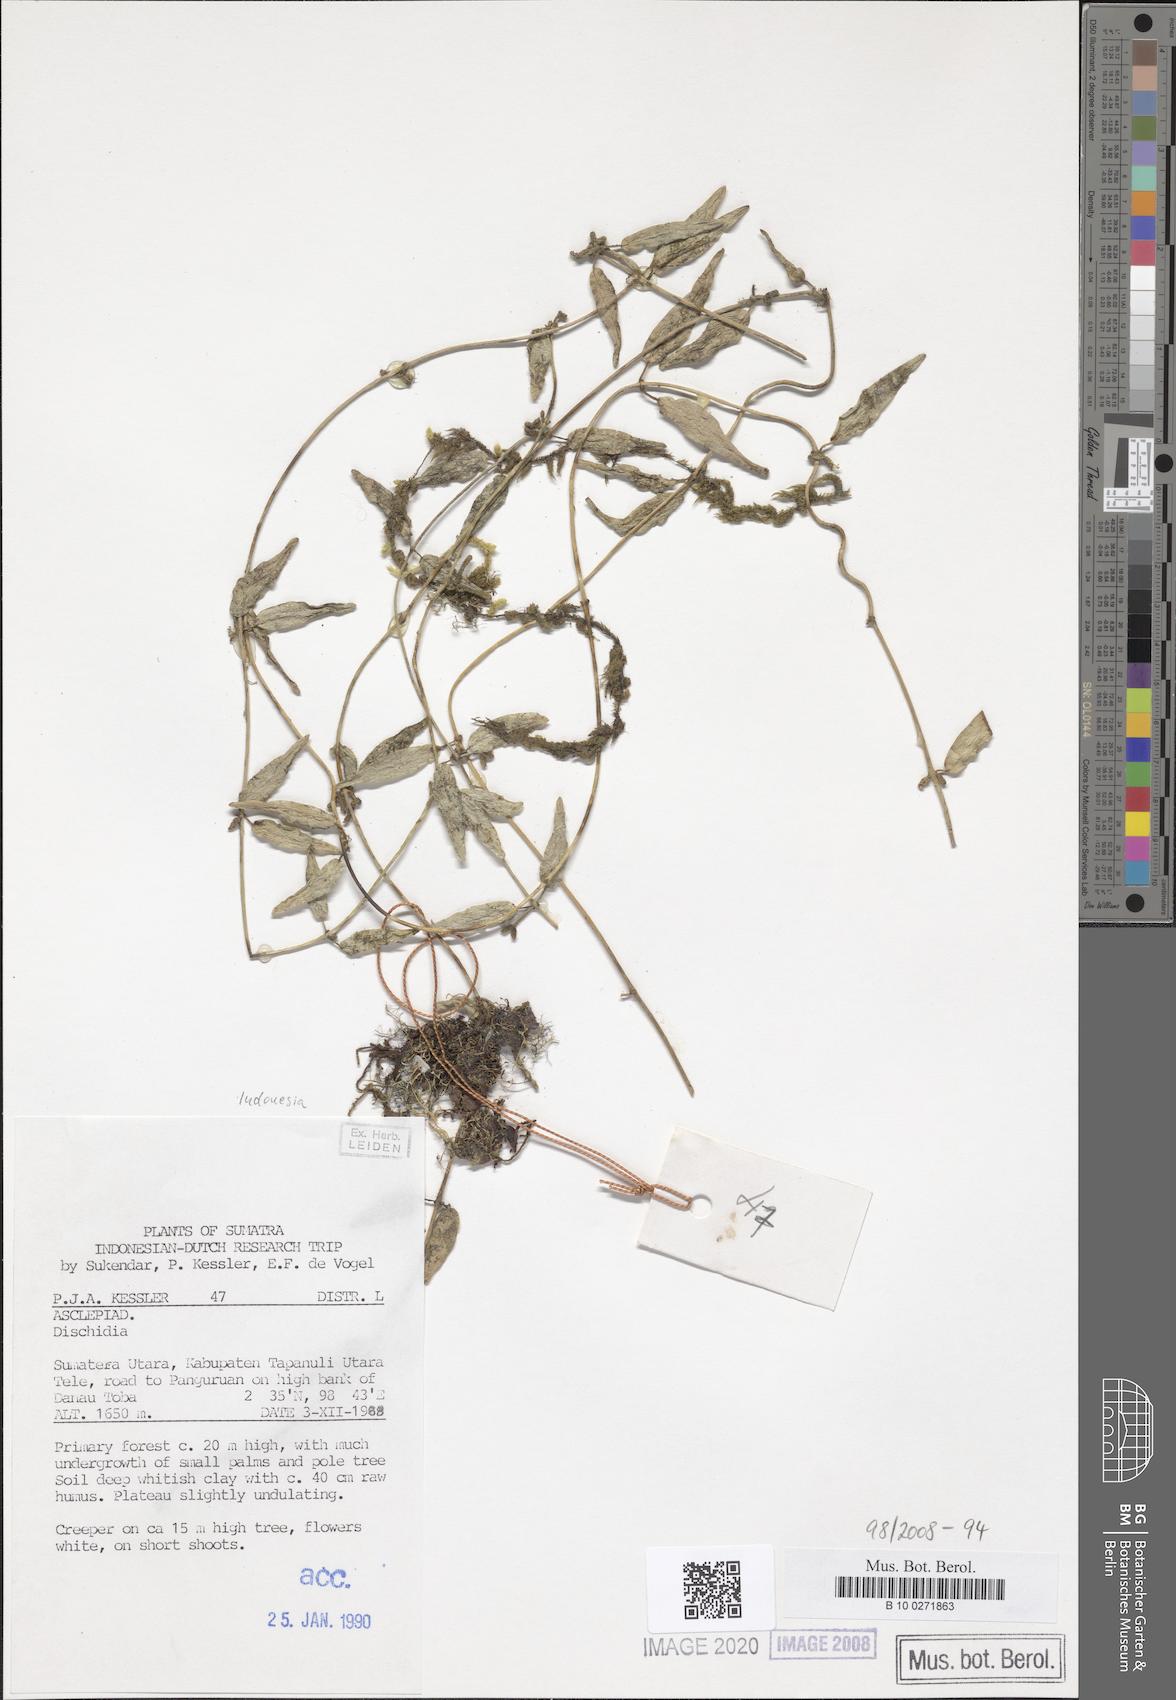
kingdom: Plantae
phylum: Tracheophyta
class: Magnoliopsida
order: Gentianales
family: Apocynaceae
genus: Dischidia
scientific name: Dischidia
